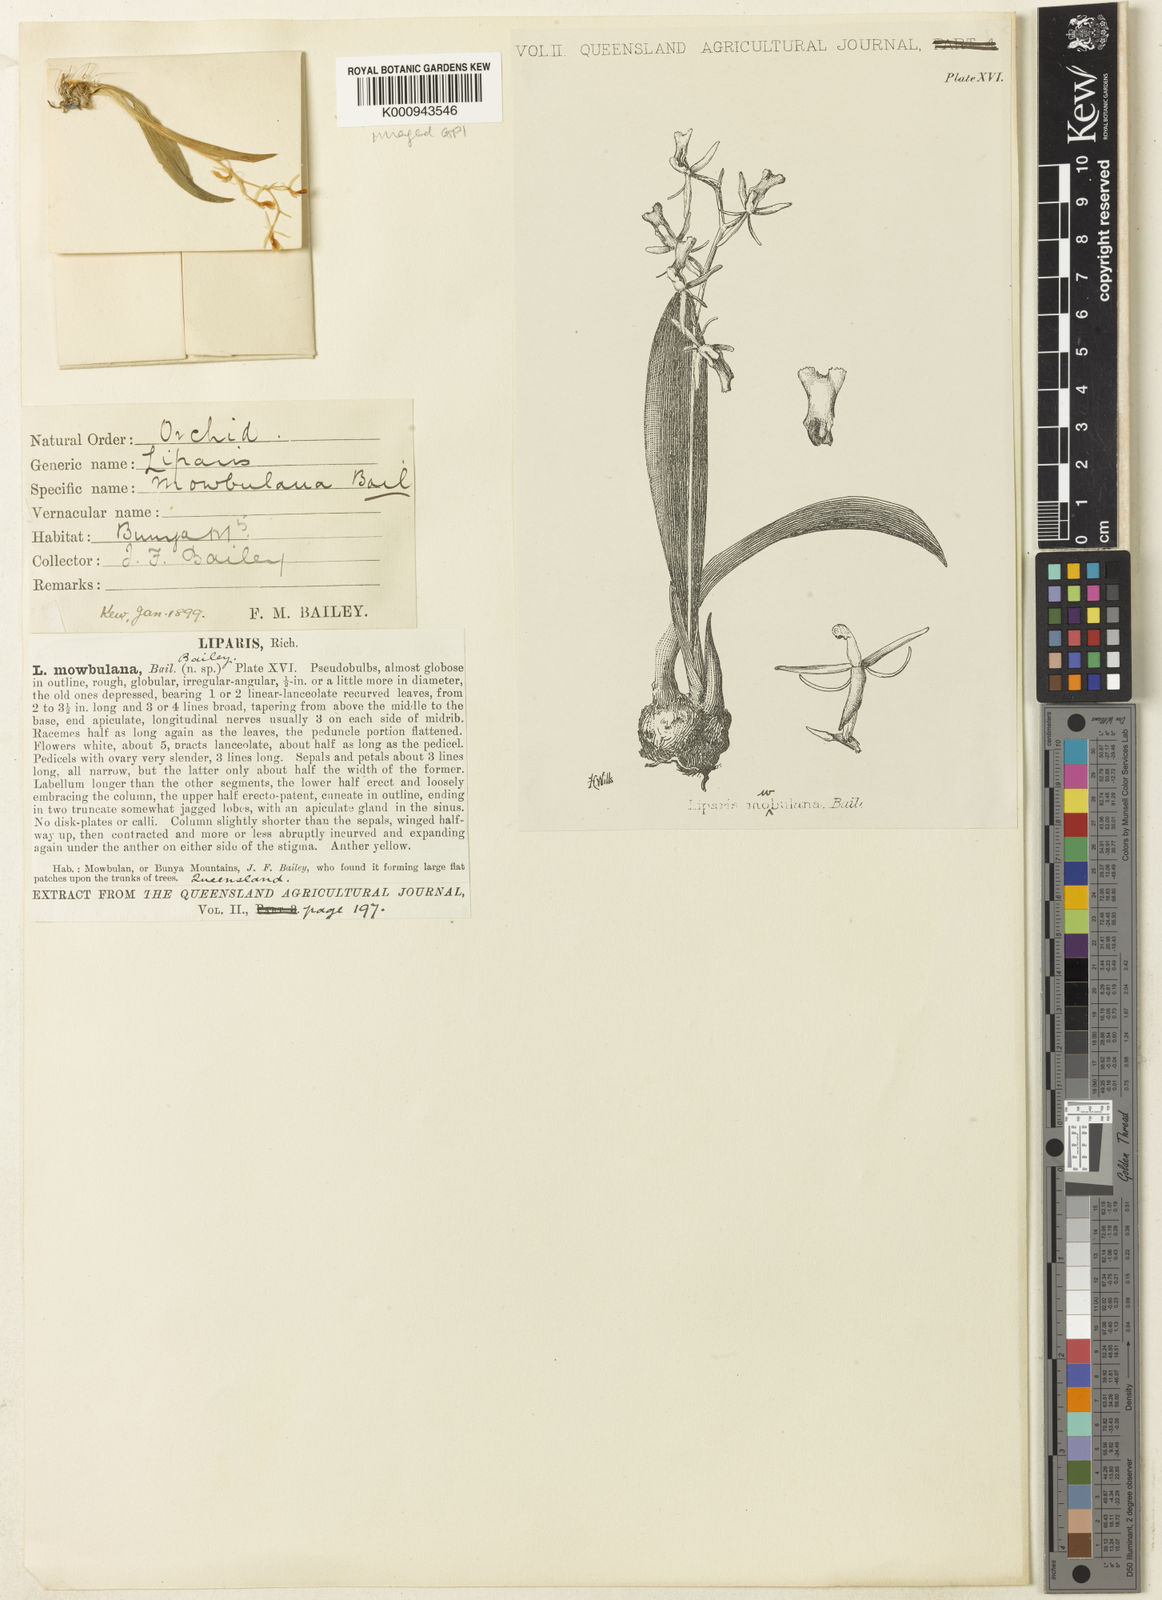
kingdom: Plantae
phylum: Tracheophyta
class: Liliopsida
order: Asparagales
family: Orchidaceae
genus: Liparis
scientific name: Liparis coelogynoides
